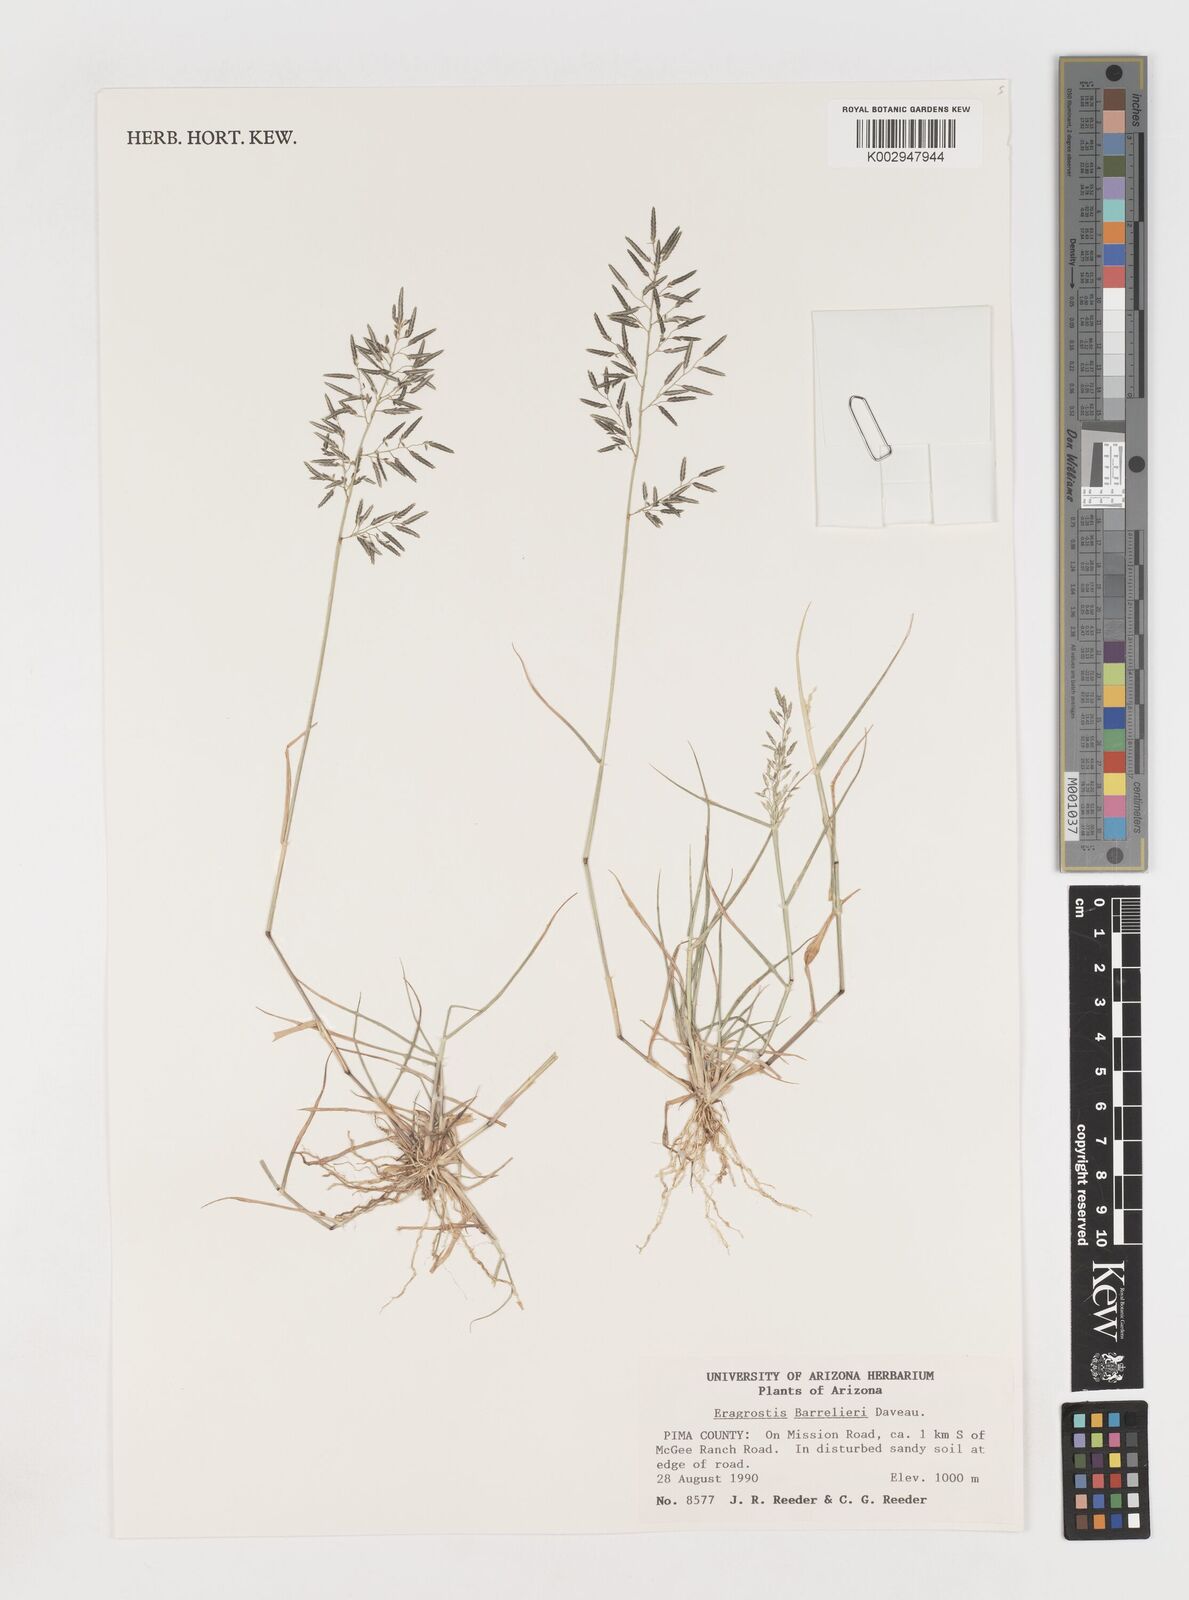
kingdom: Plantae
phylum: Tracheophyta
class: Liliopsida
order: Poales
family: Poaceae
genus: Eragrostis
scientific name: Eragrostis barrelieri
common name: Mediterranean lovegrass
